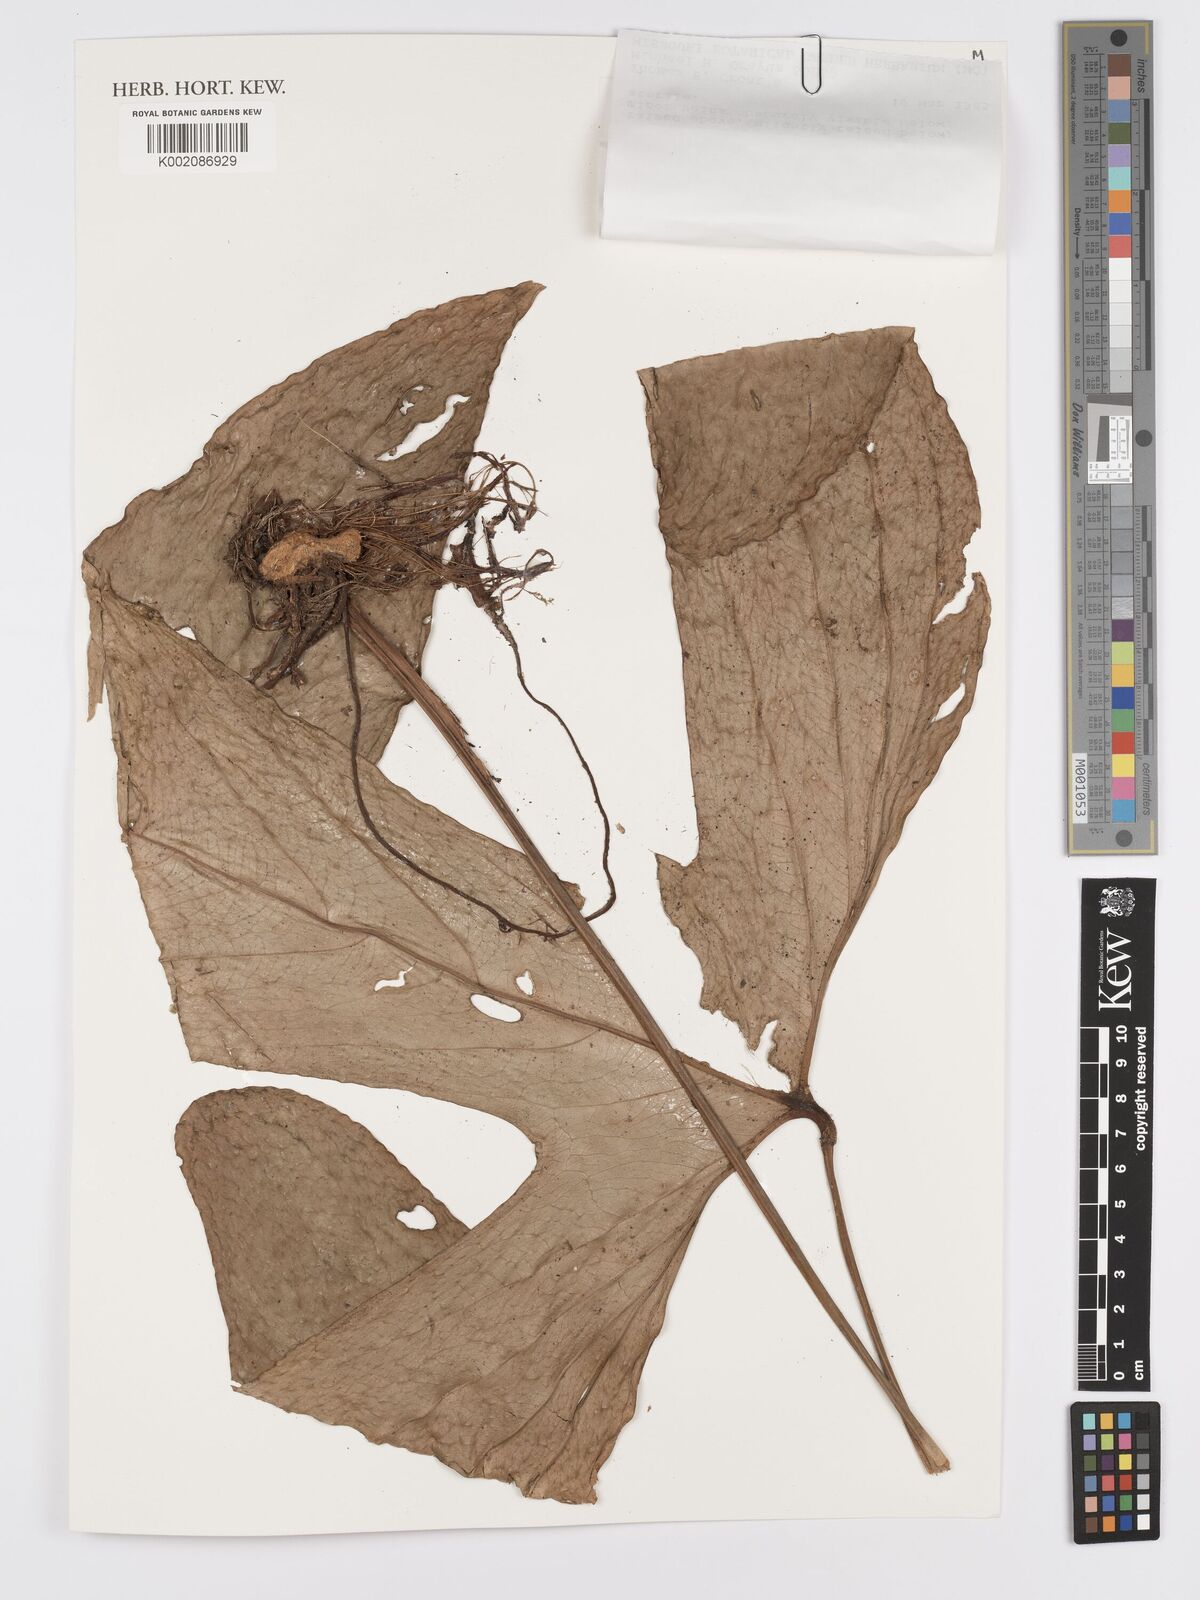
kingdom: Plantae
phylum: Tracheophyta
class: Liliopsida
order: Alismatales
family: Araceae
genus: Anthurium
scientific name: Anthurium rotundatum
